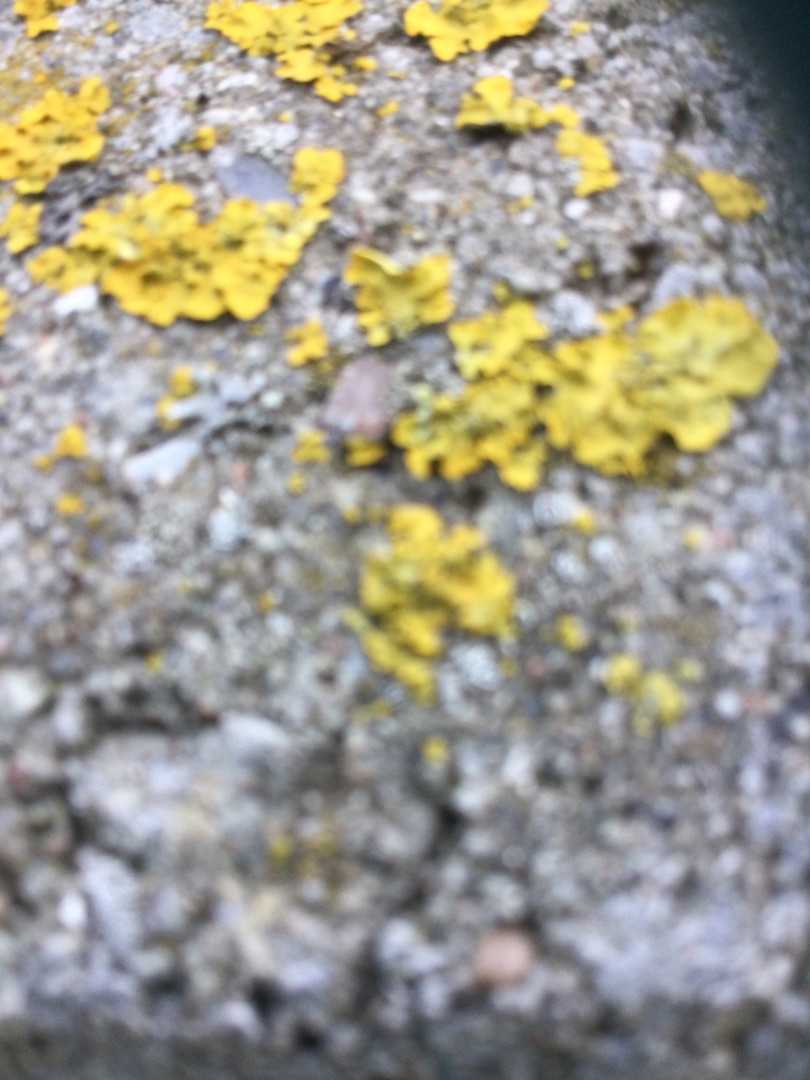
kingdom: Fungi
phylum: Ascomycota
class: Lecanoromycetes
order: Teloschistales
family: Teloschistaceae
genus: Xanthoria
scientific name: Xanthoria parietina
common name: Almindelig væggelav
